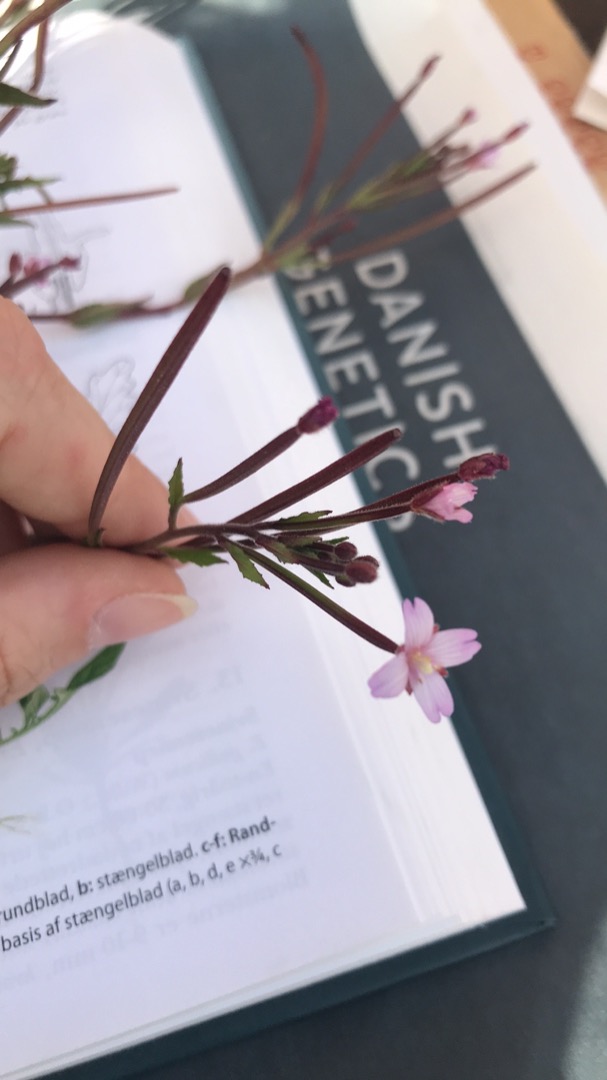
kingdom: Plantae
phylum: Tracheophyta
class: Magnoliopsida
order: Myrtales
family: Onagraceae
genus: Epilobium
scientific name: Epilobium ciliatum
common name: Kirtlet dueurt
